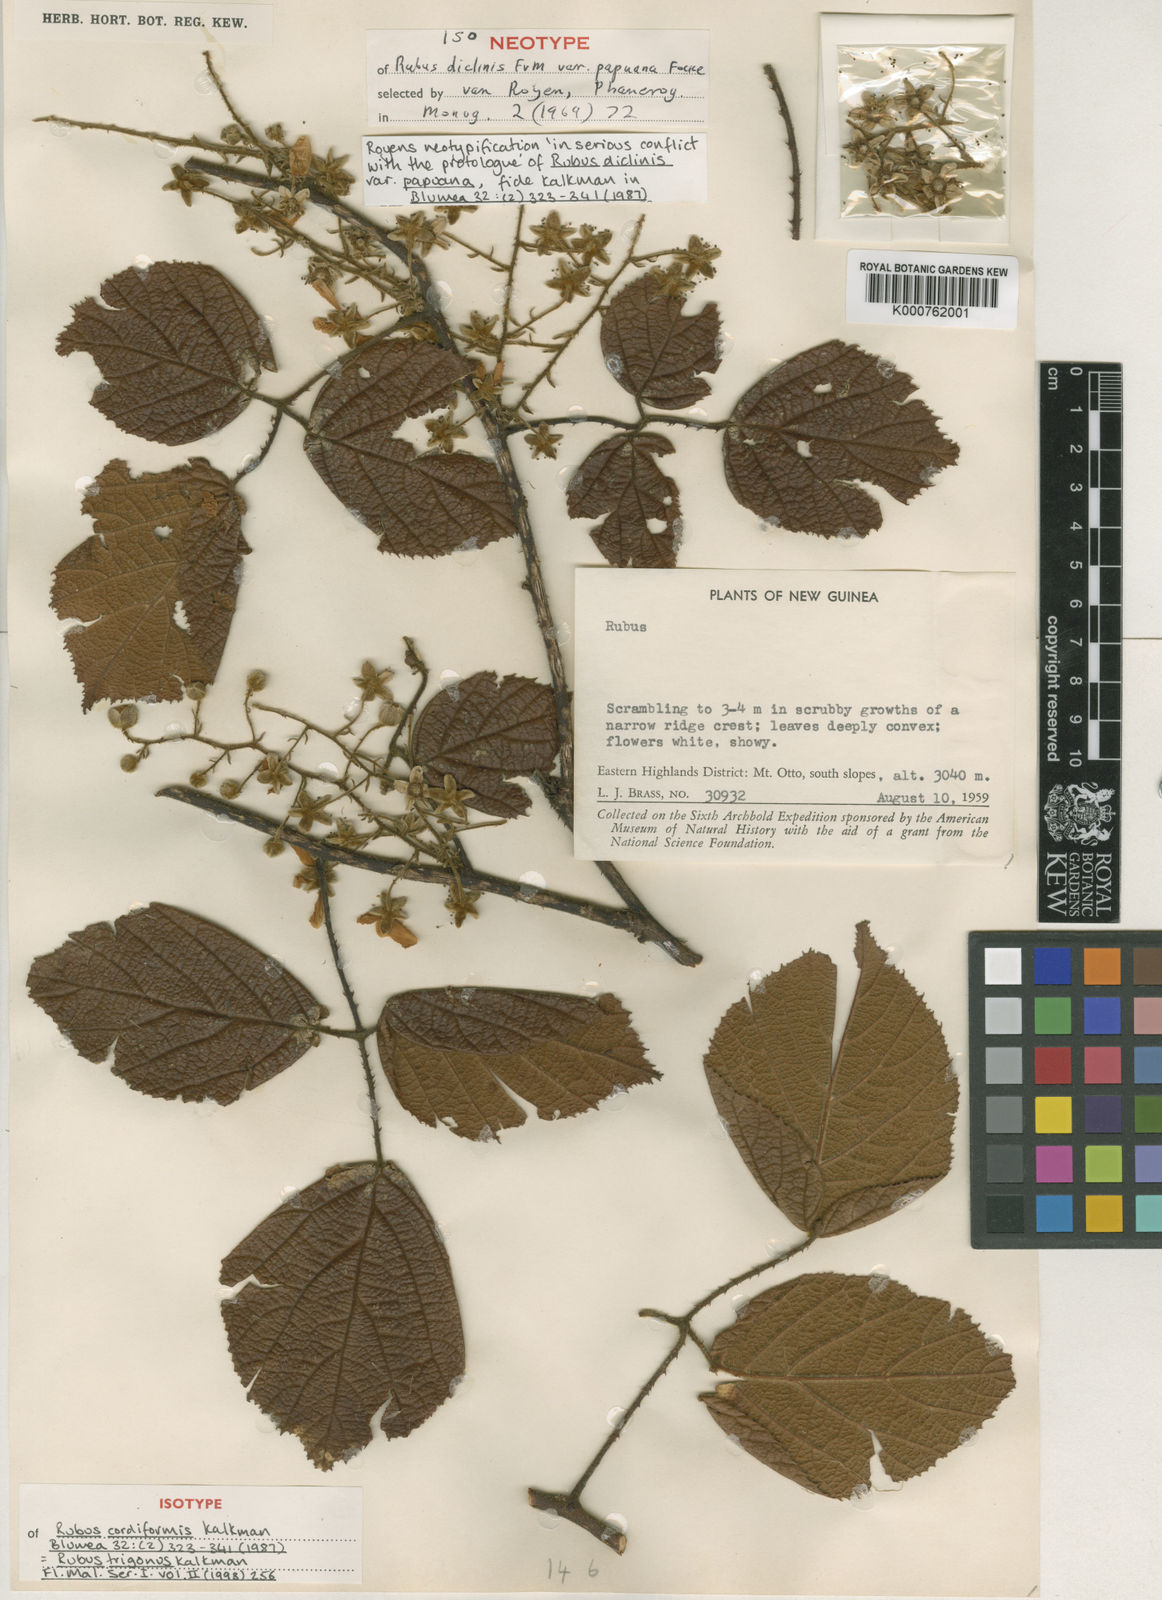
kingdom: Plantae
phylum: Tracheophyta
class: Magnoliopsida
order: Rosales
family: Rosaceae
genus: Rubus
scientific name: Rubus diclinis
